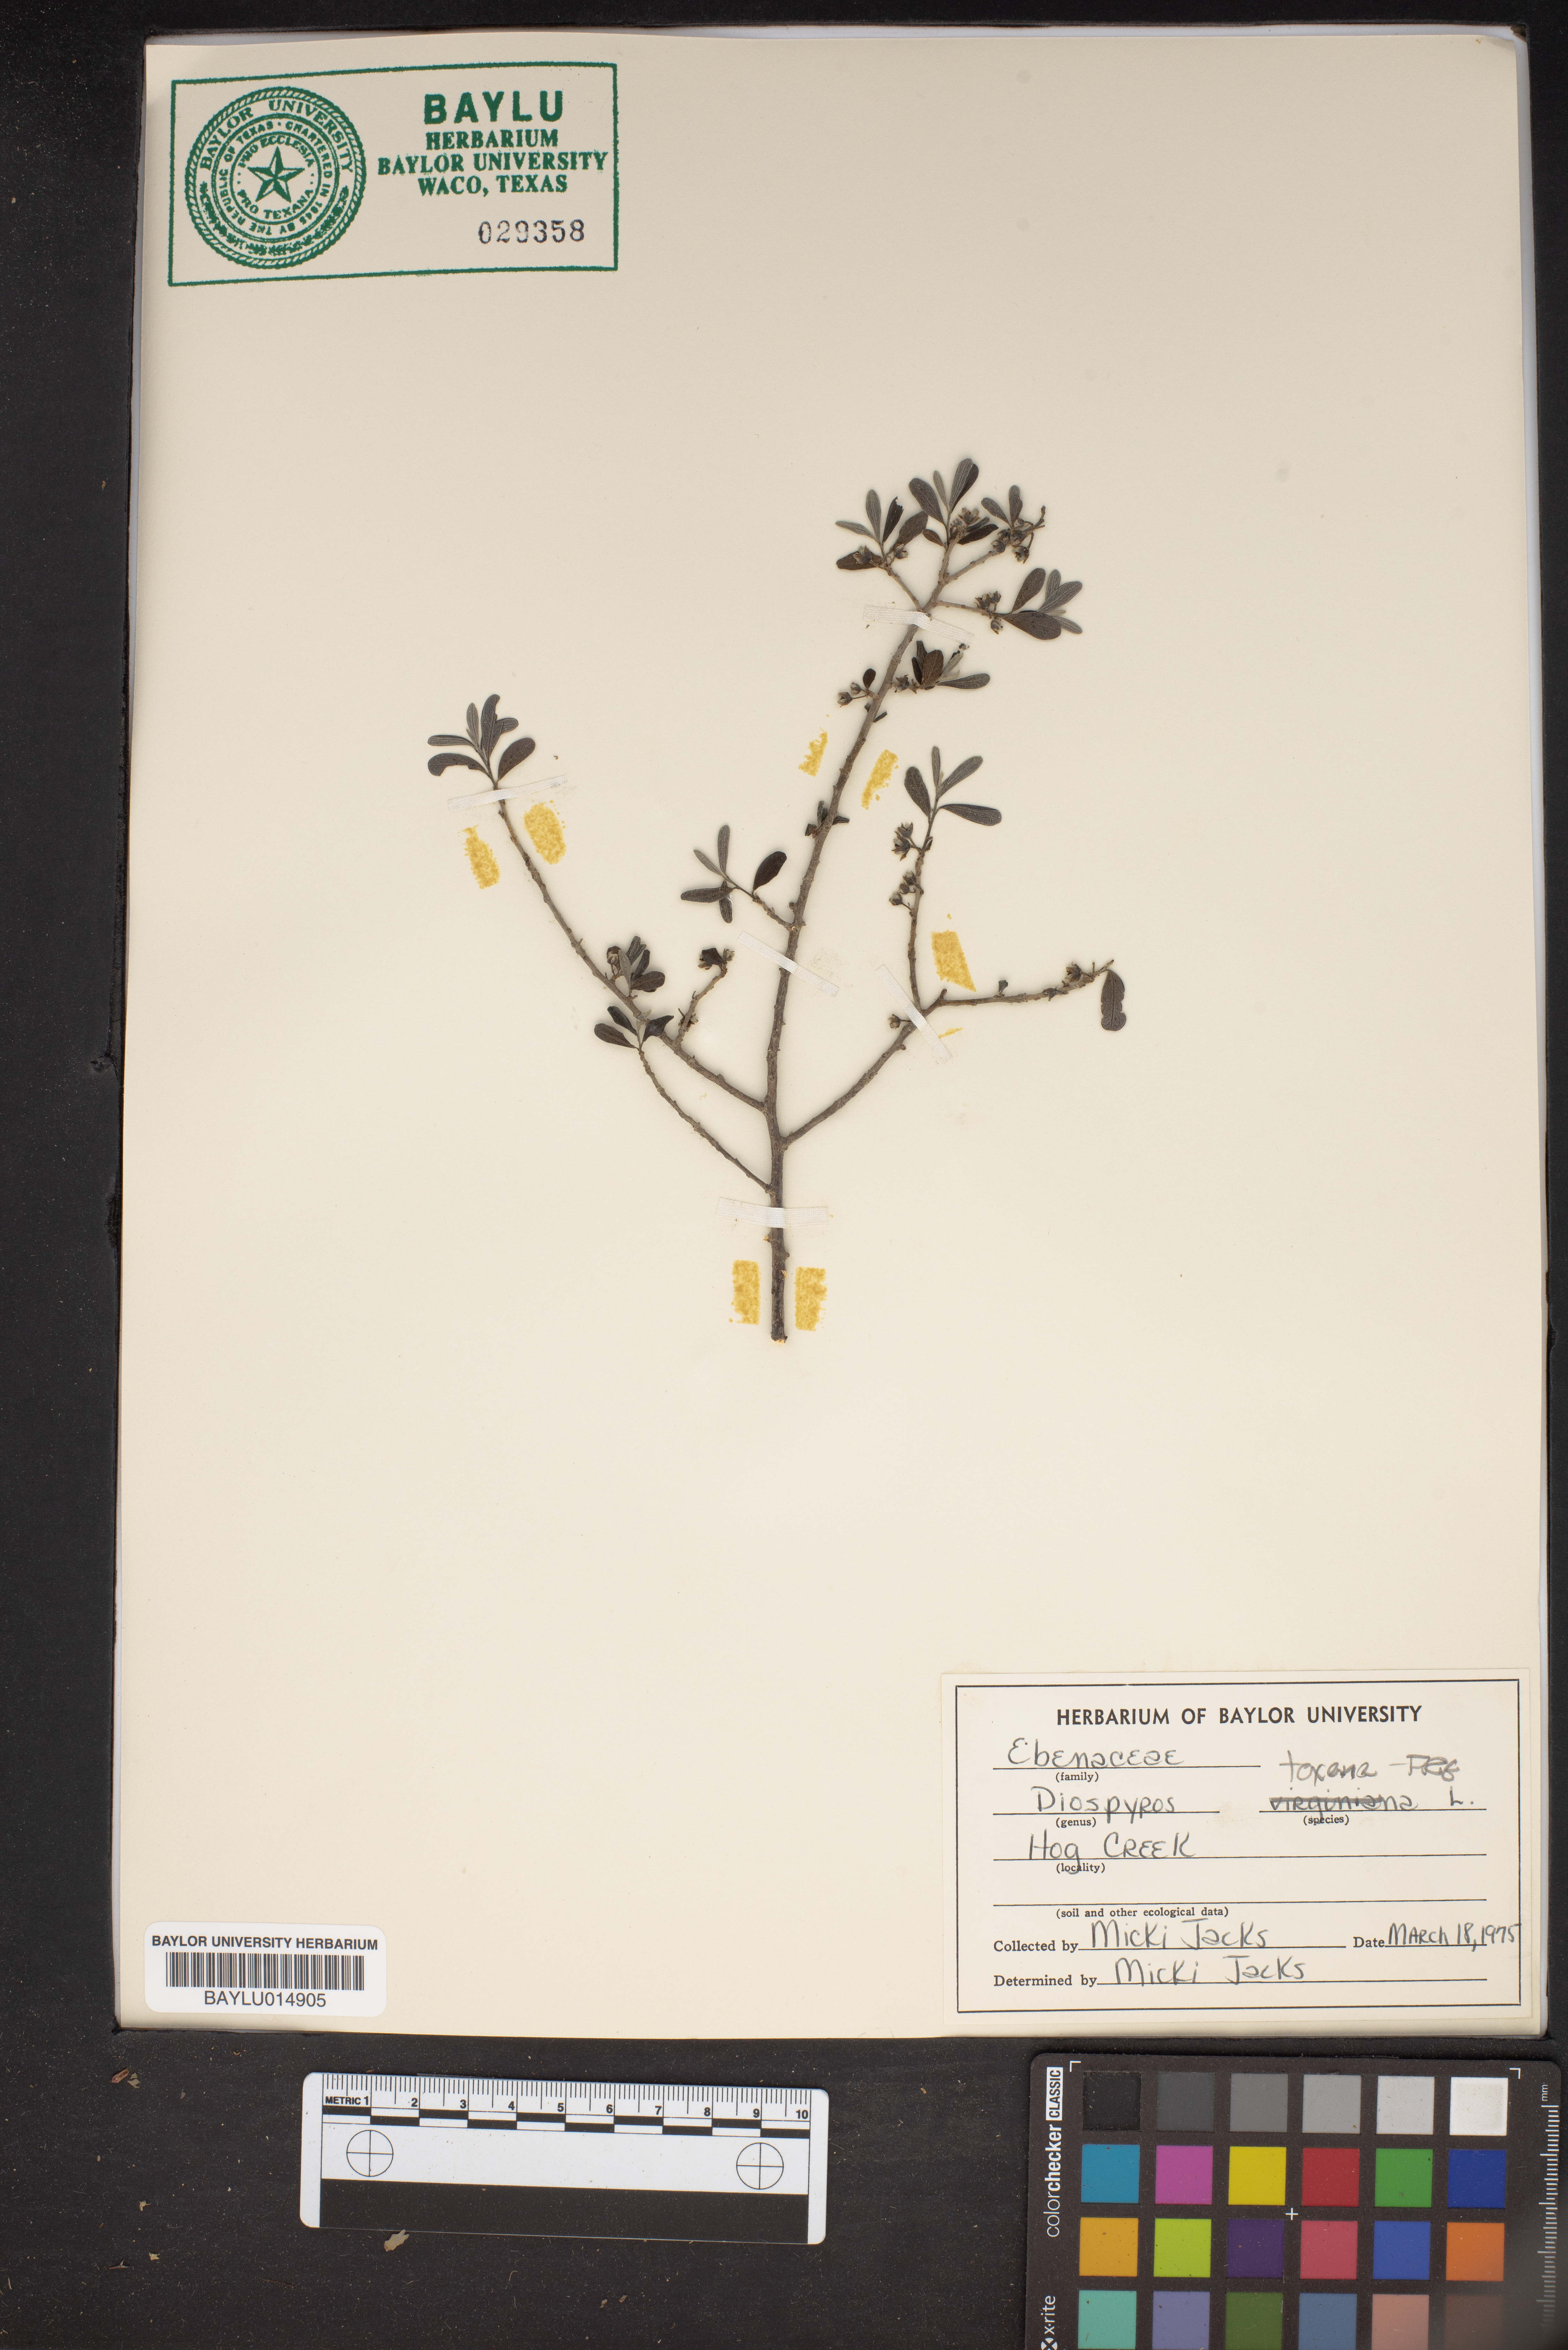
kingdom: Plantae
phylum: Tracheophyta
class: Magnoliopsida
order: Ericales
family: Ebenaceae
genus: Diospyros
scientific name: Diospyros texana
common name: Texas persimmon
